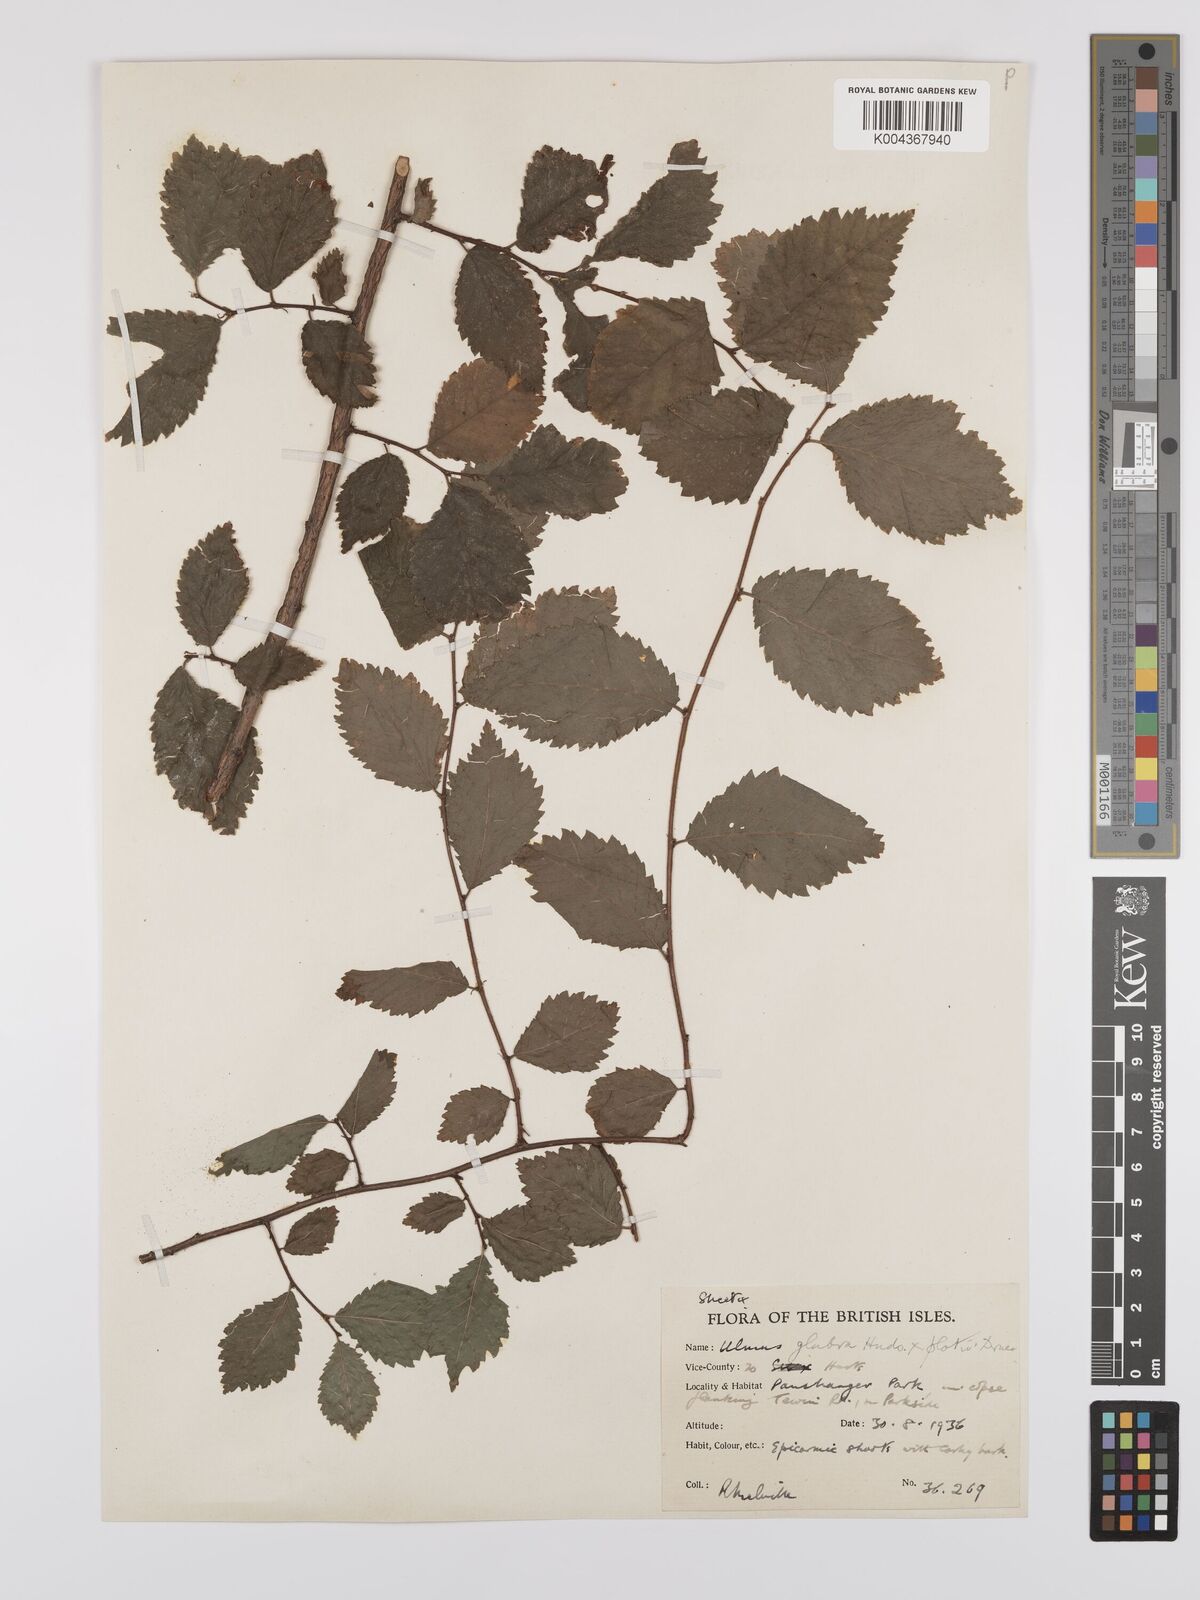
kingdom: Plantae
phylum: Tracheophyta
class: Magnoliopsida
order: Rosales
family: Ulmaceae
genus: Ulmus
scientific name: Ulmus glabra
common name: Wych elm
